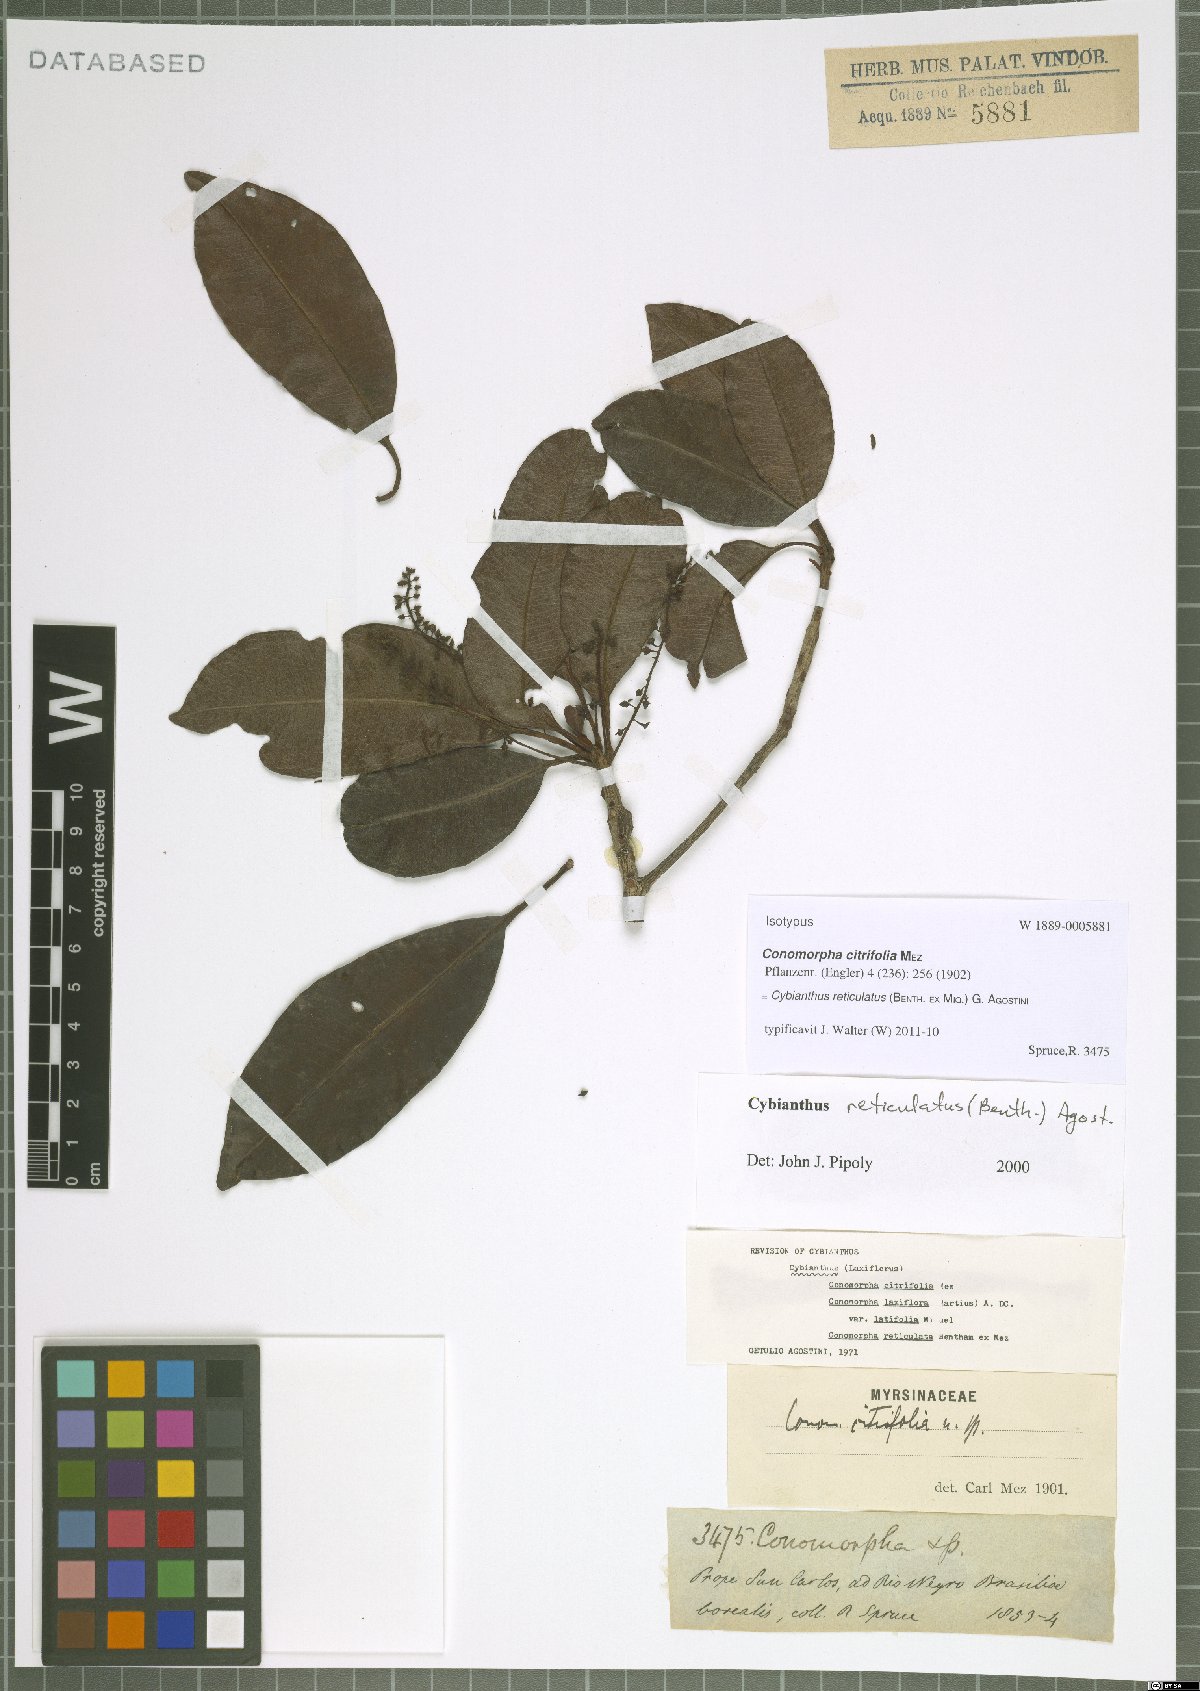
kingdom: Plantae
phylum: Tracheophyta
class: Magnoliopsida
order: Ericales
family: Primulaceae
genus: Cybianthus
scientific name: Cybianthus reticulatus
